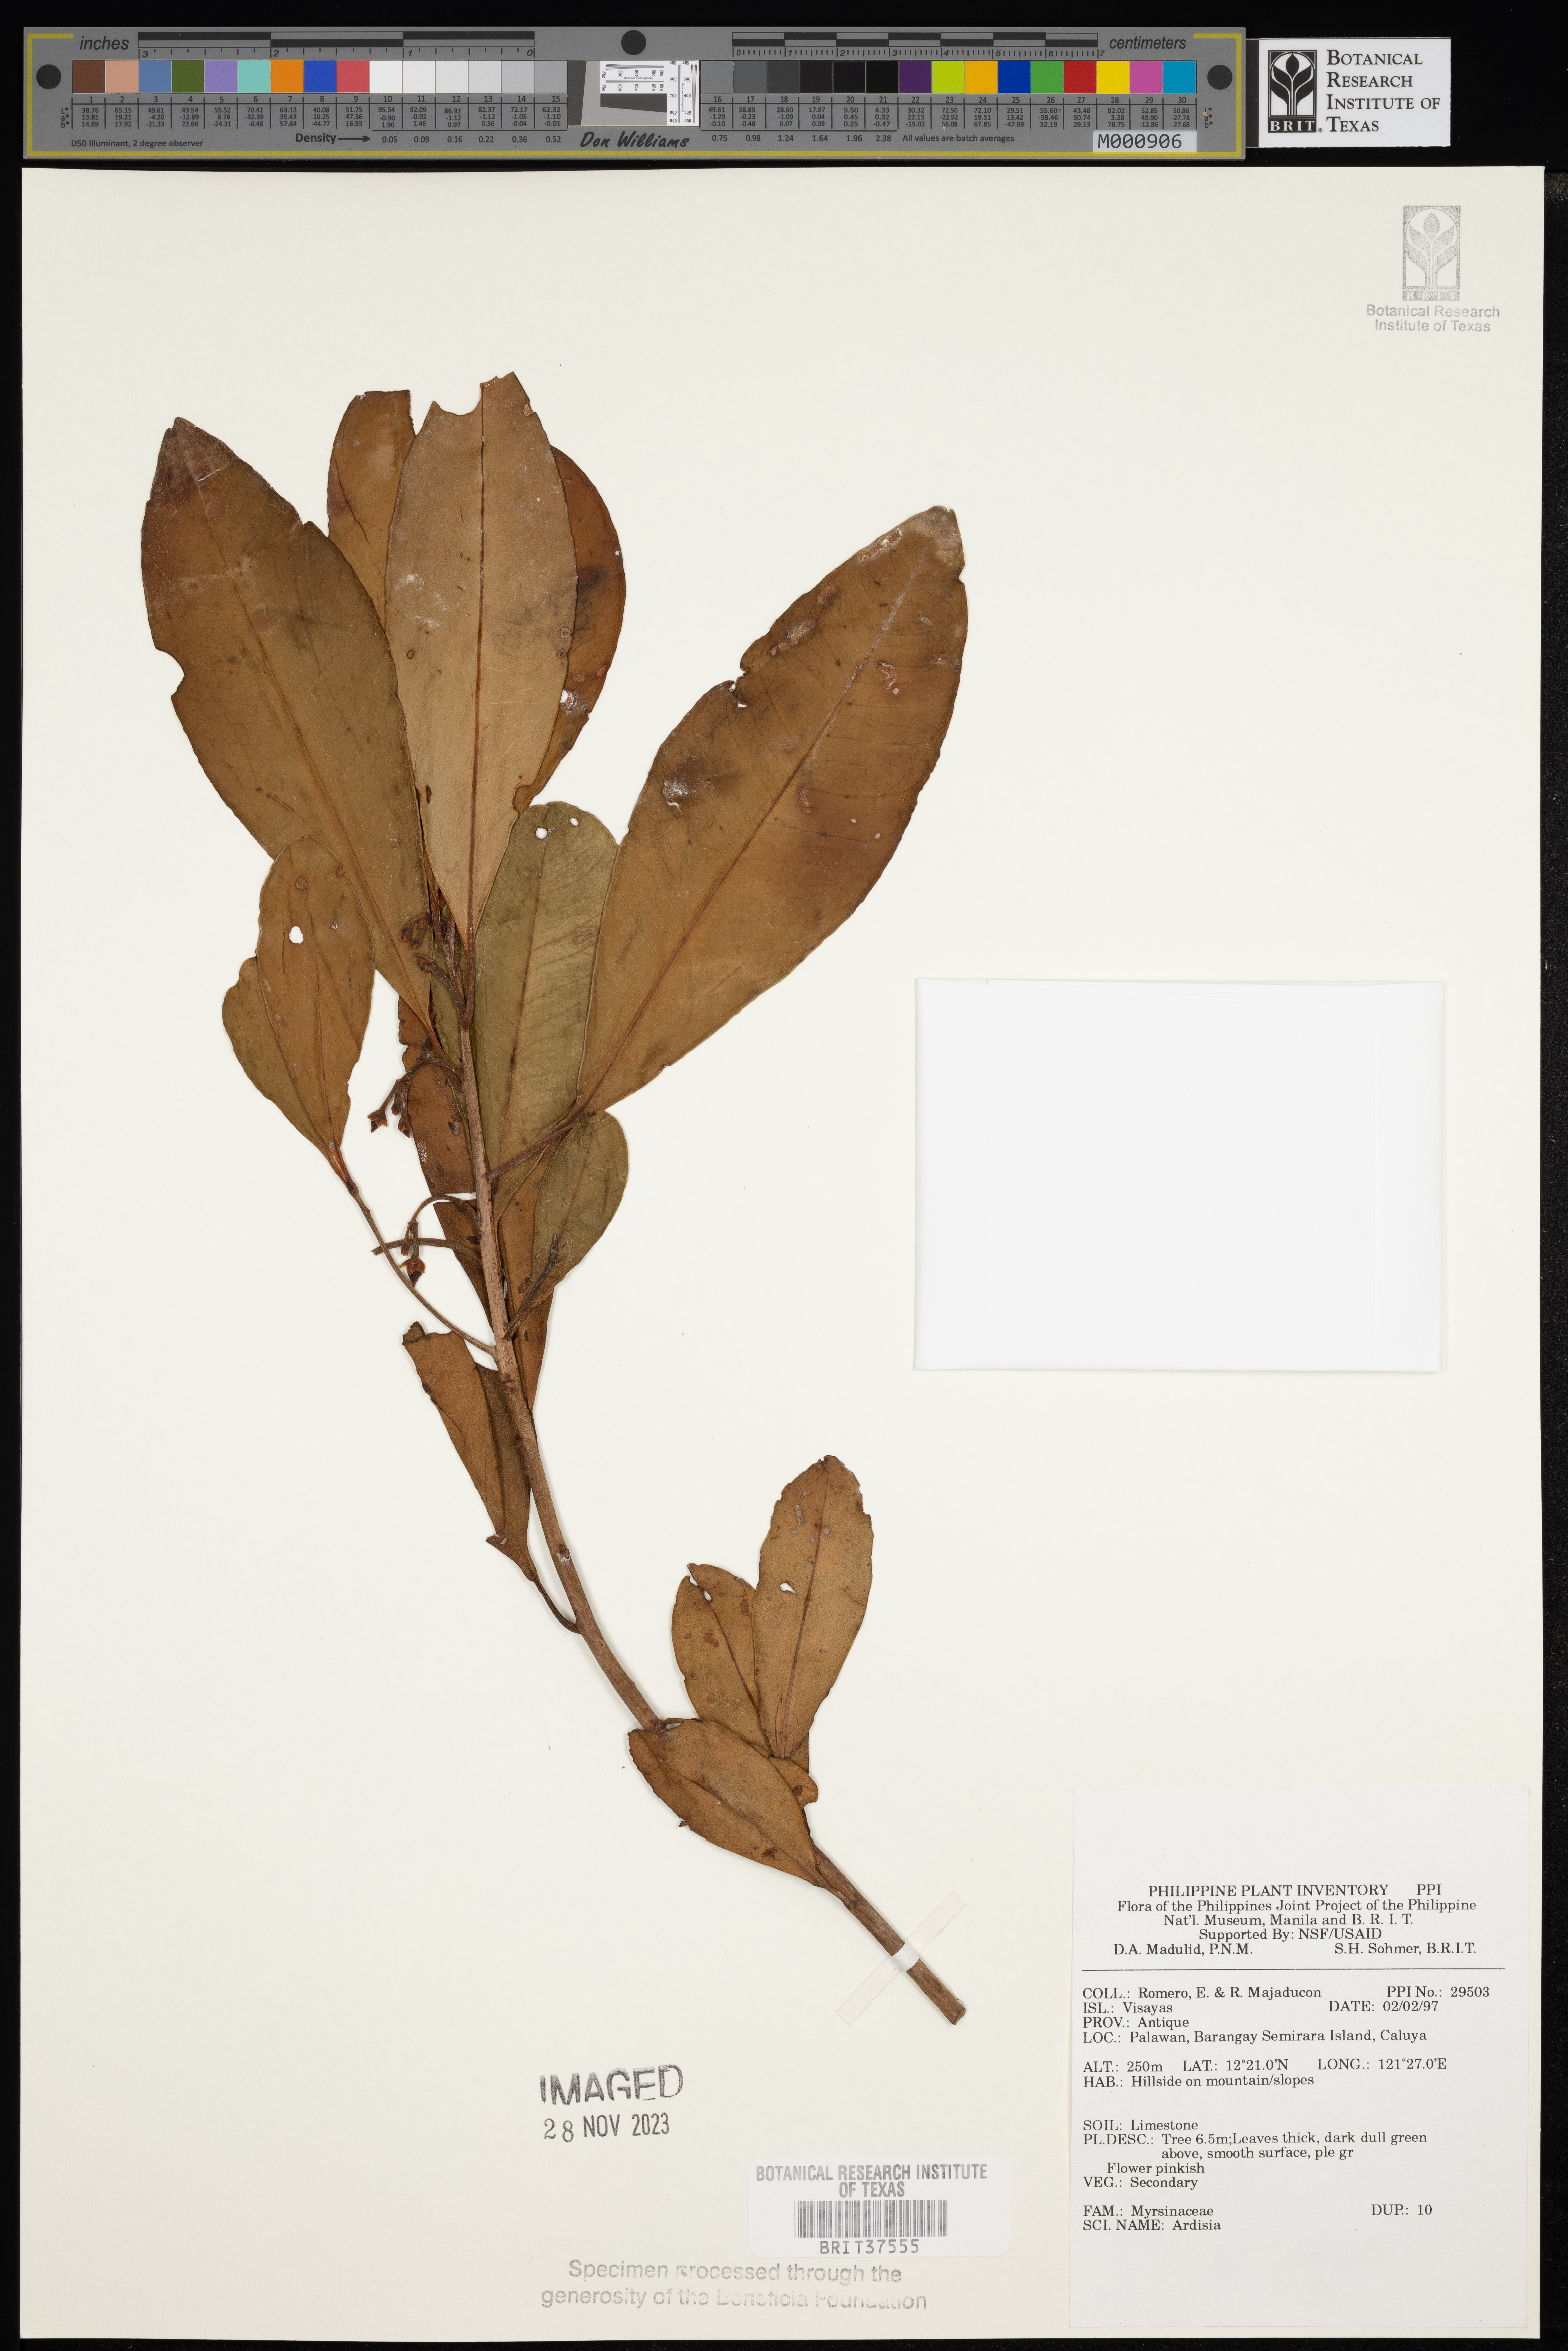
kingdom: Plantae
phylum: Tracheophyta
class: Magnoliopsida
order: Ericales
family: Primulaceae
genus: Ardisia
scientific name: Ardisia
